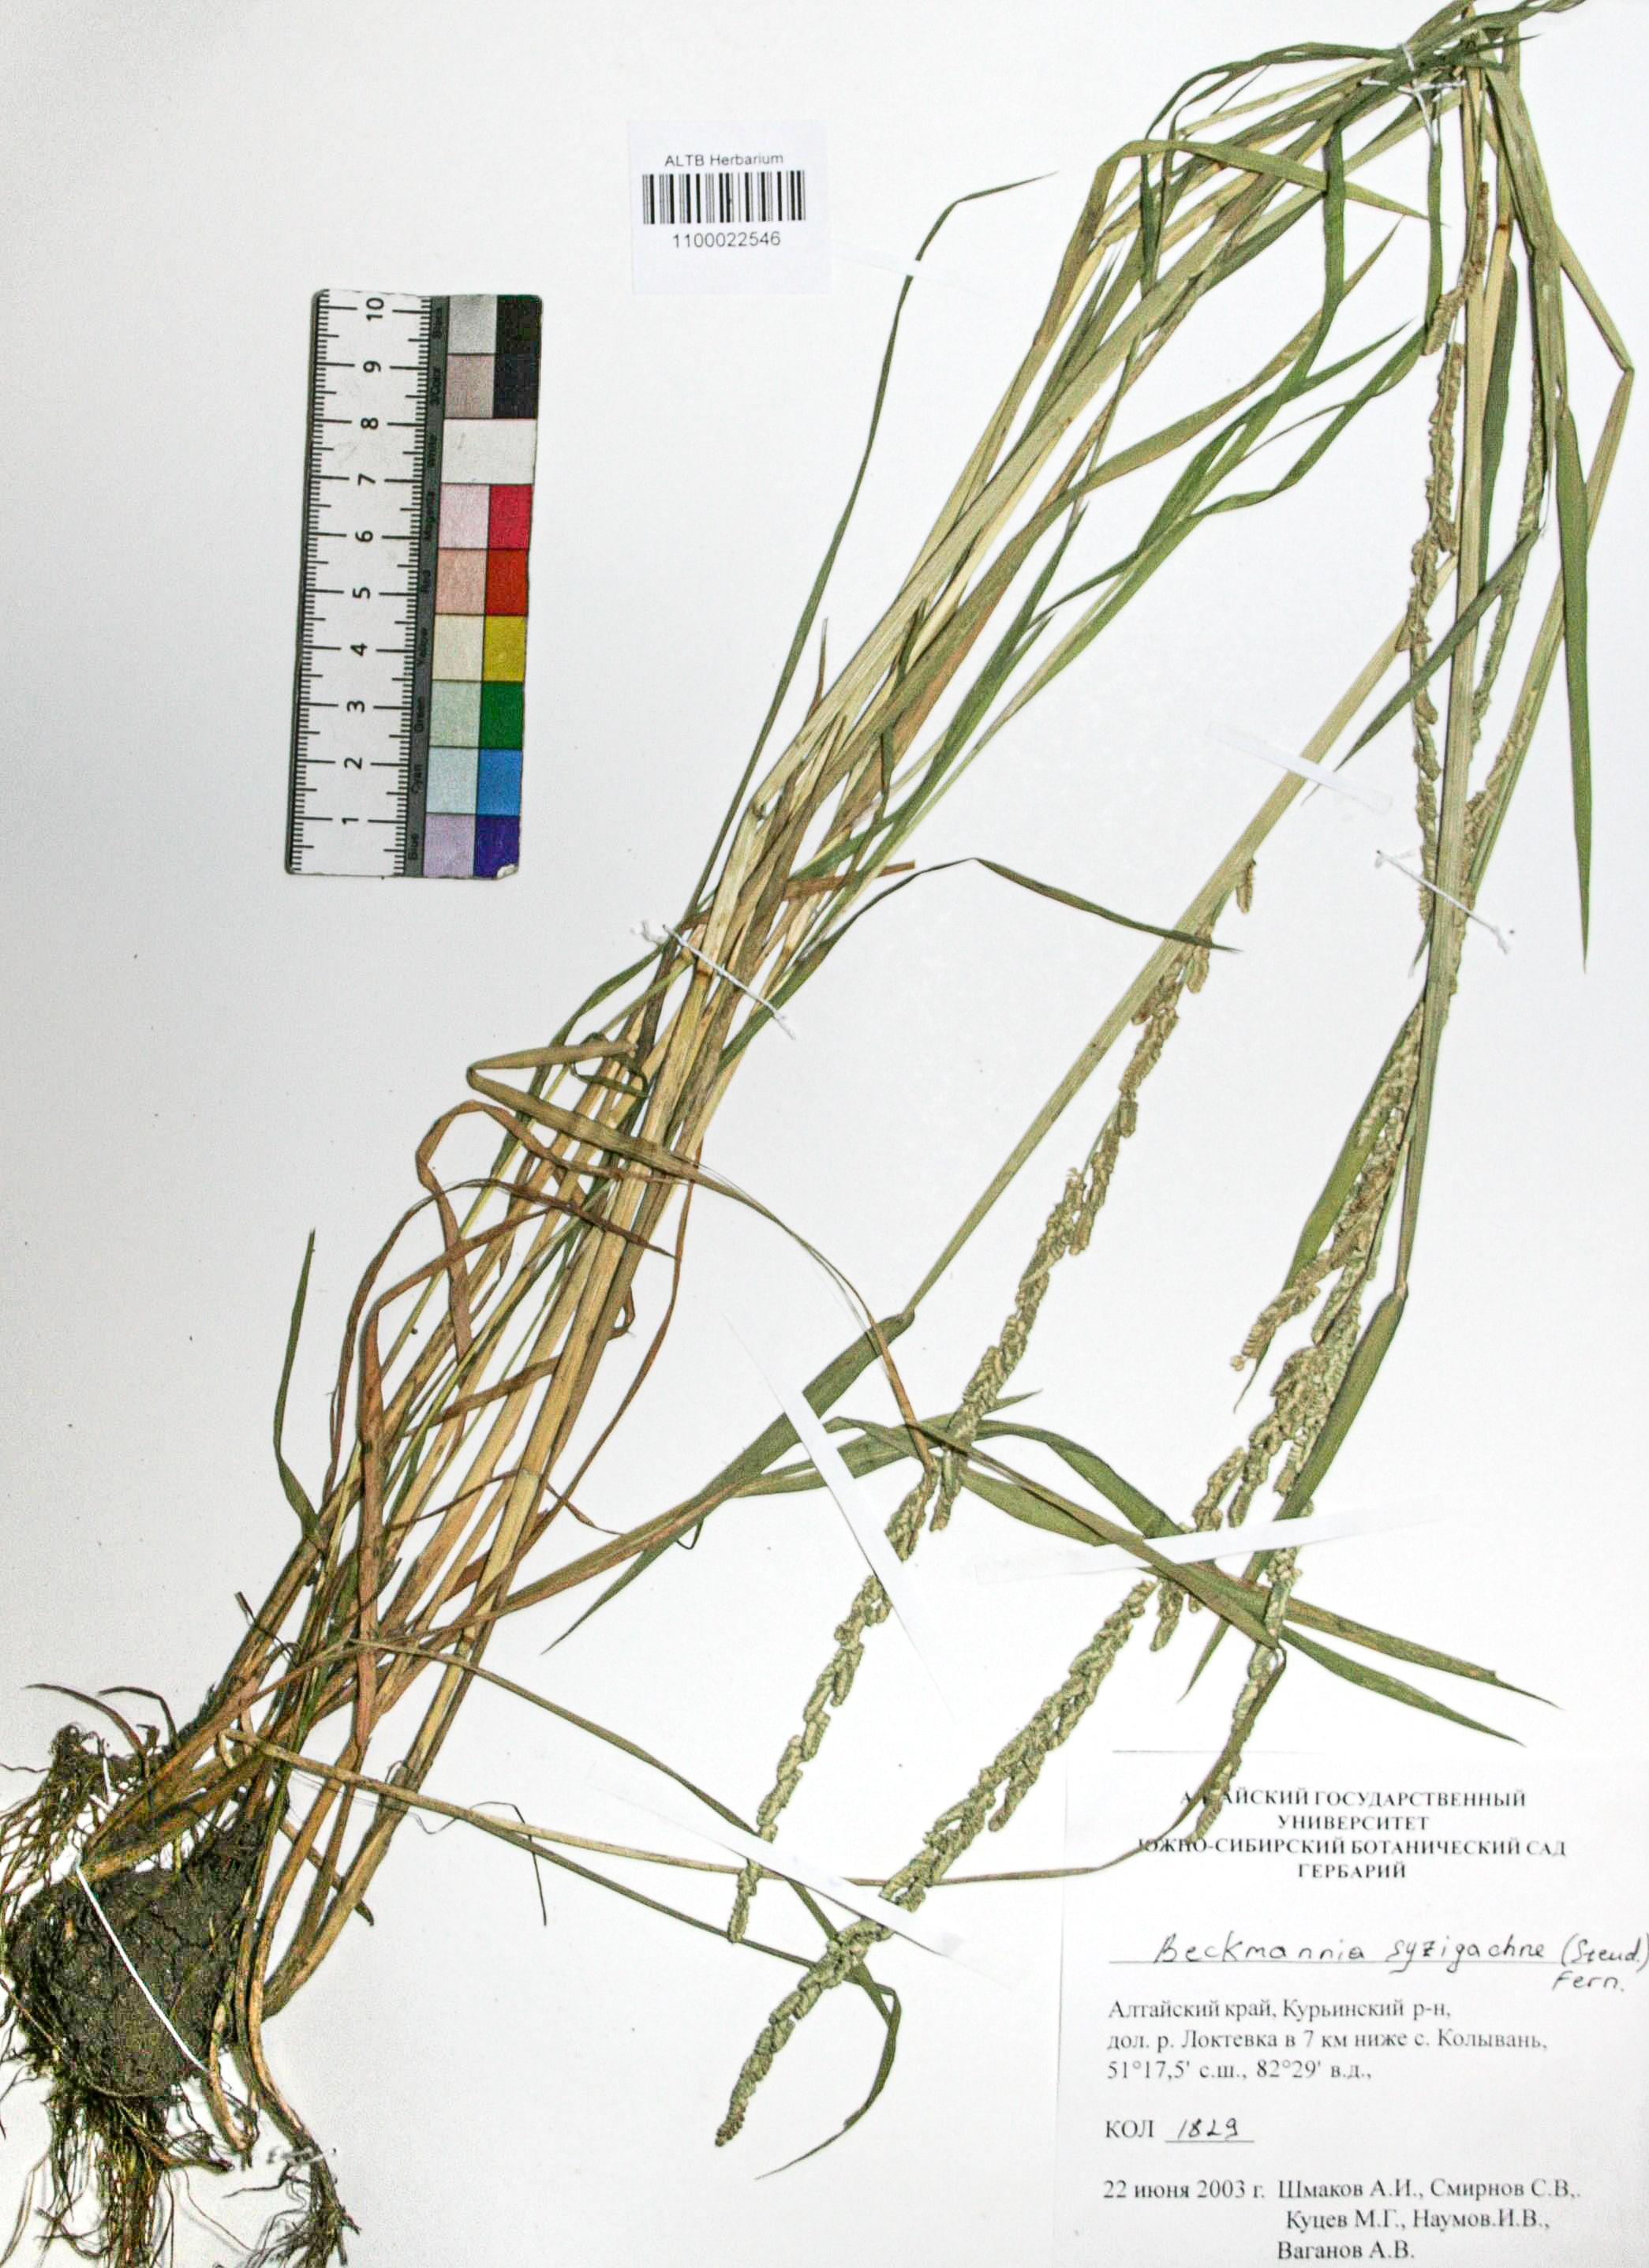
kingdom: Plantae
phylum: Tracheophyta
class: Liliopsida
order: Poales
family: Poaceae
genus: Beckmannia
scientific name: Beckmannia syzigachne
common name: American slough-grass
